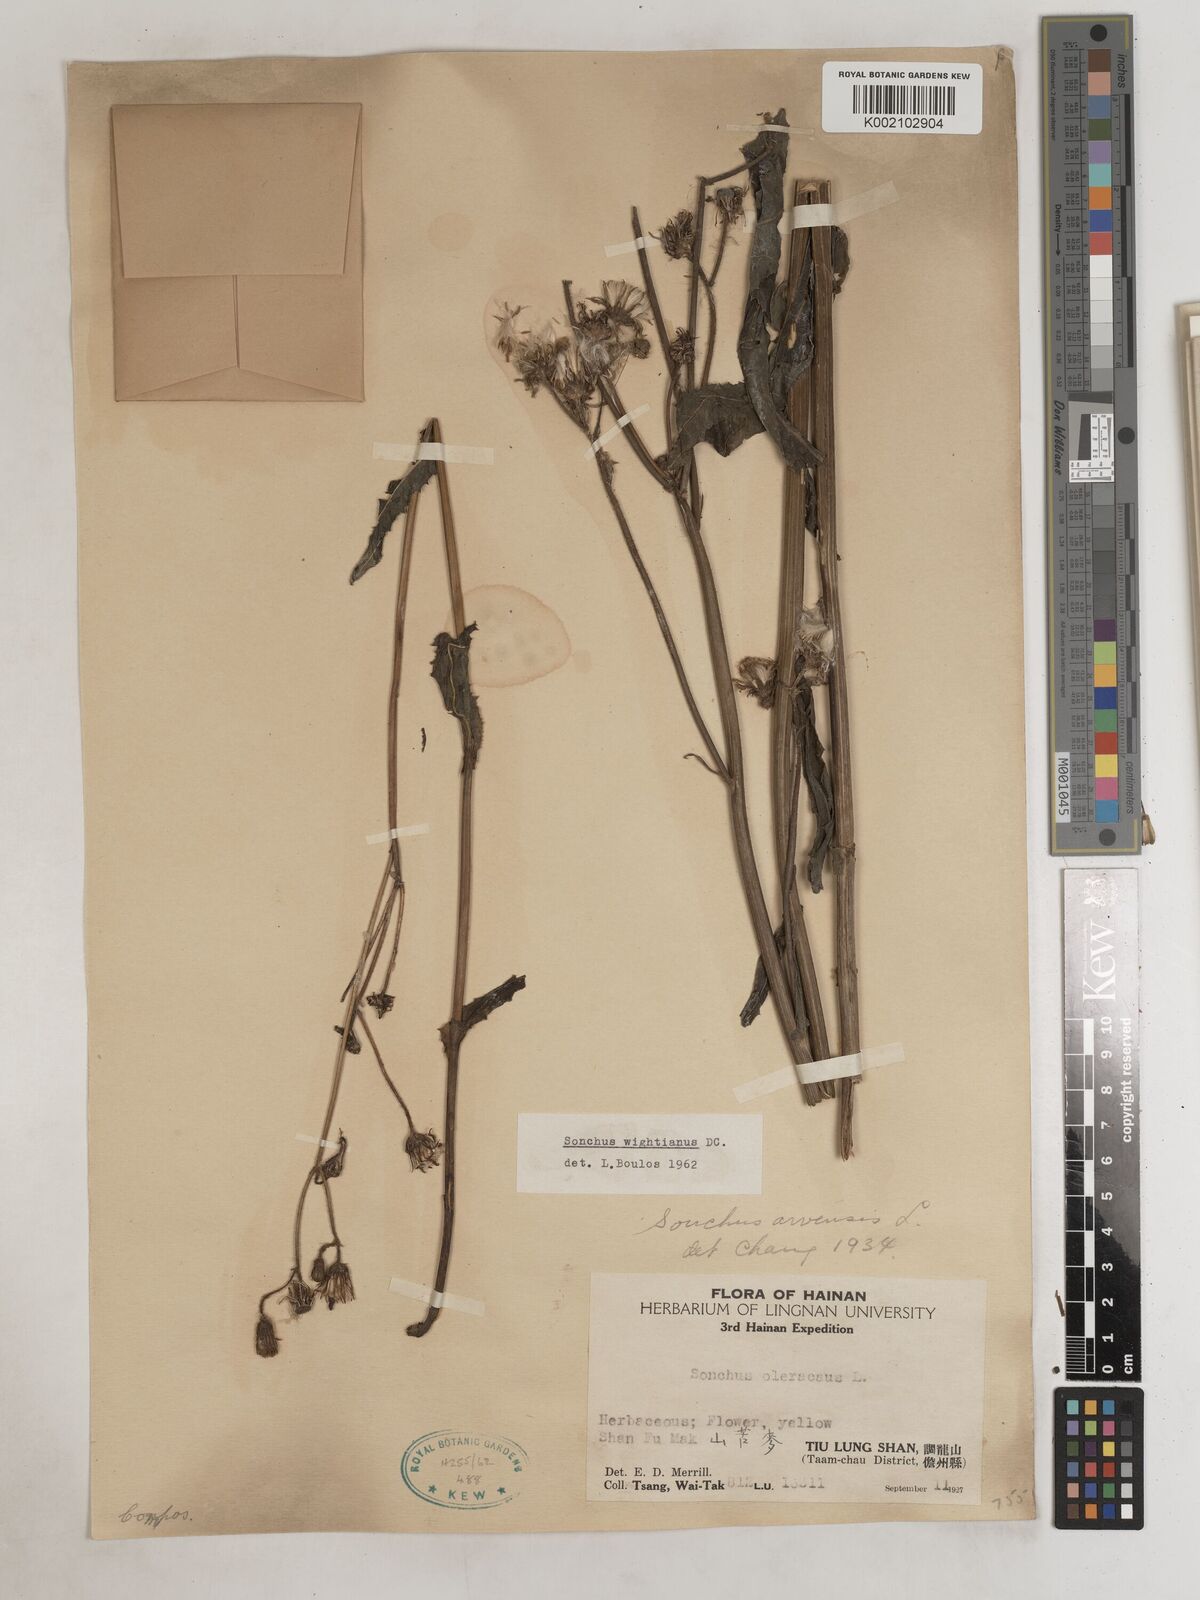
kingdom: Plantae
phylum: Tracheophyta
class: Magnoliopsida
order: Asterales
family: Asteraceae
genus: Sonchus
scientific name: Sonchus wightianus
